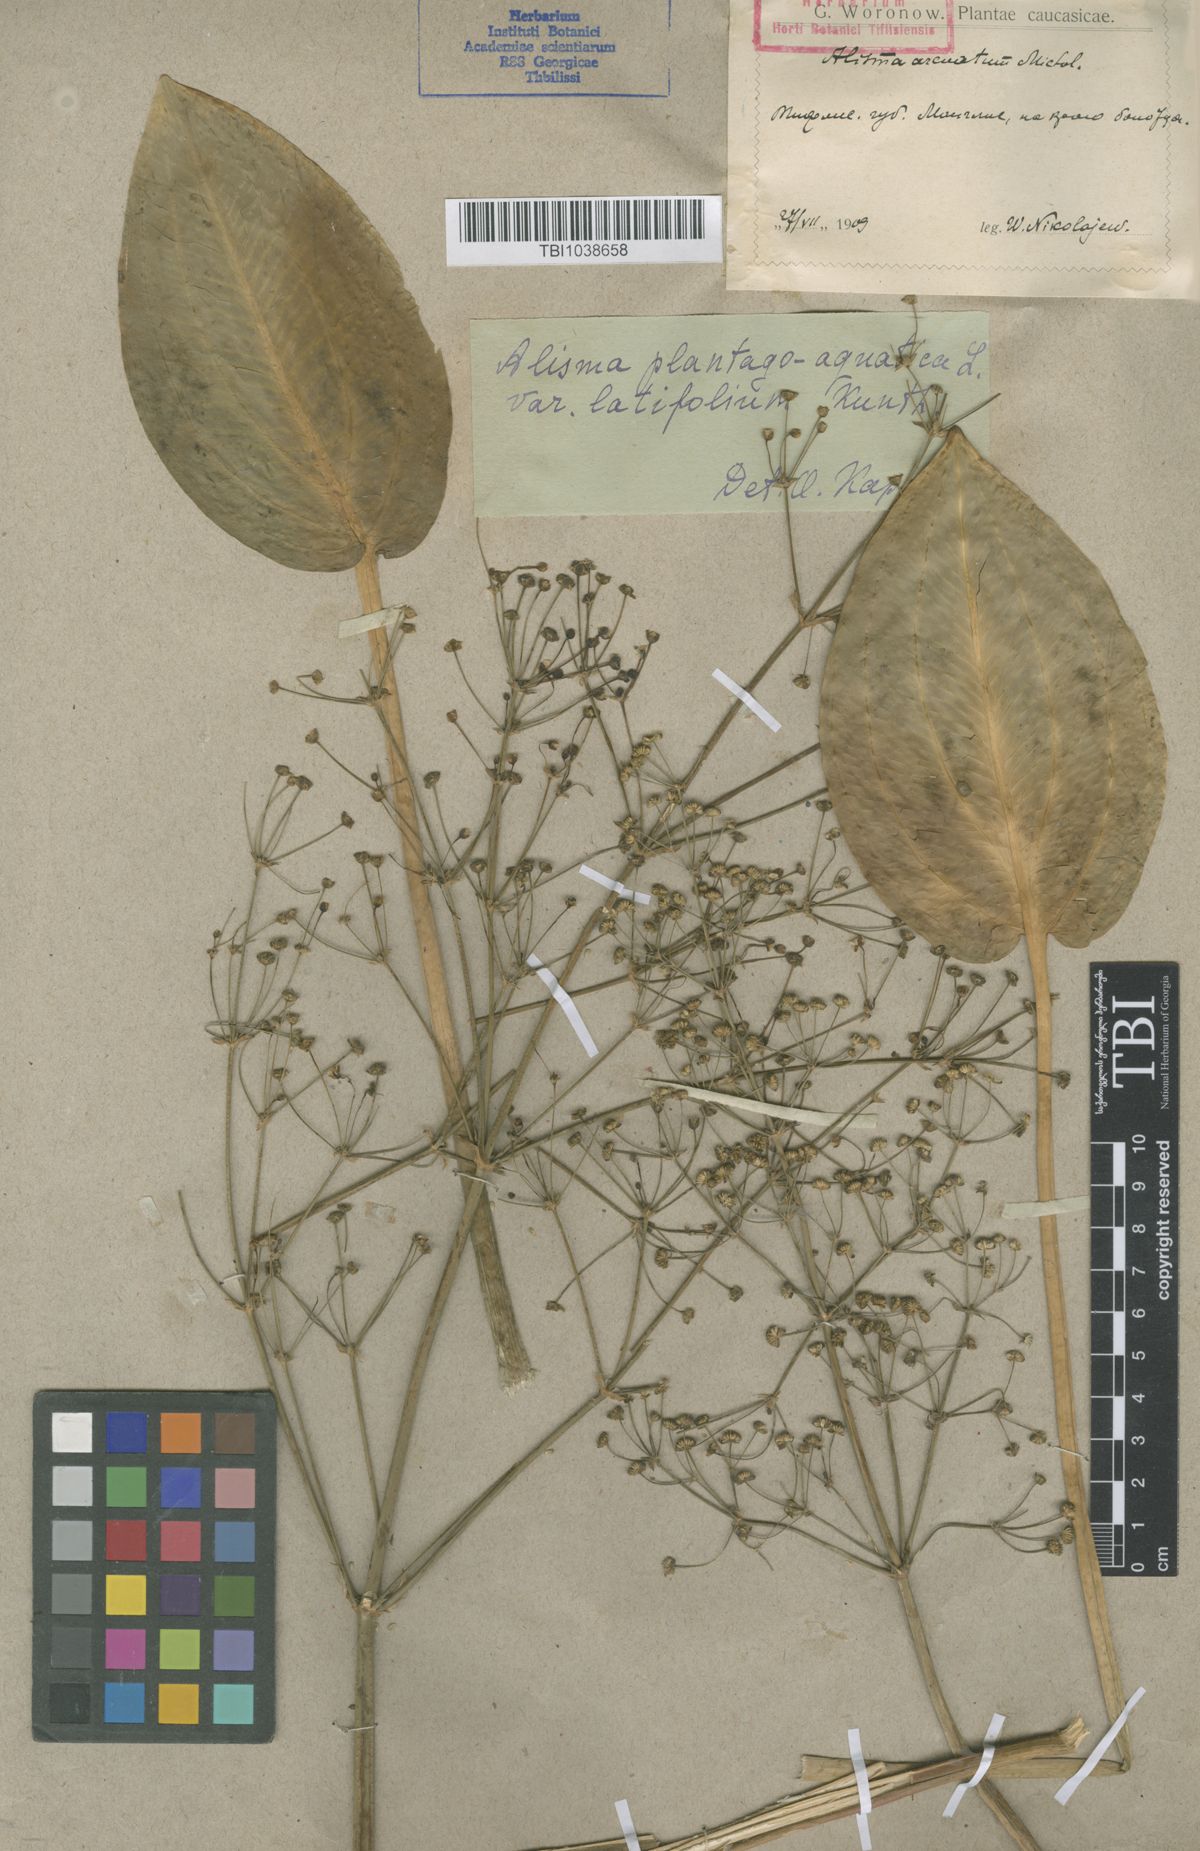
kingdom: Plantae
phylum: Tracheophyta
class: Liliopsida
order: Alismatales
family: Alismataceae
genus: Alisma
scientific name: Alisma plantago-aquatica
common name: Water-plantain
